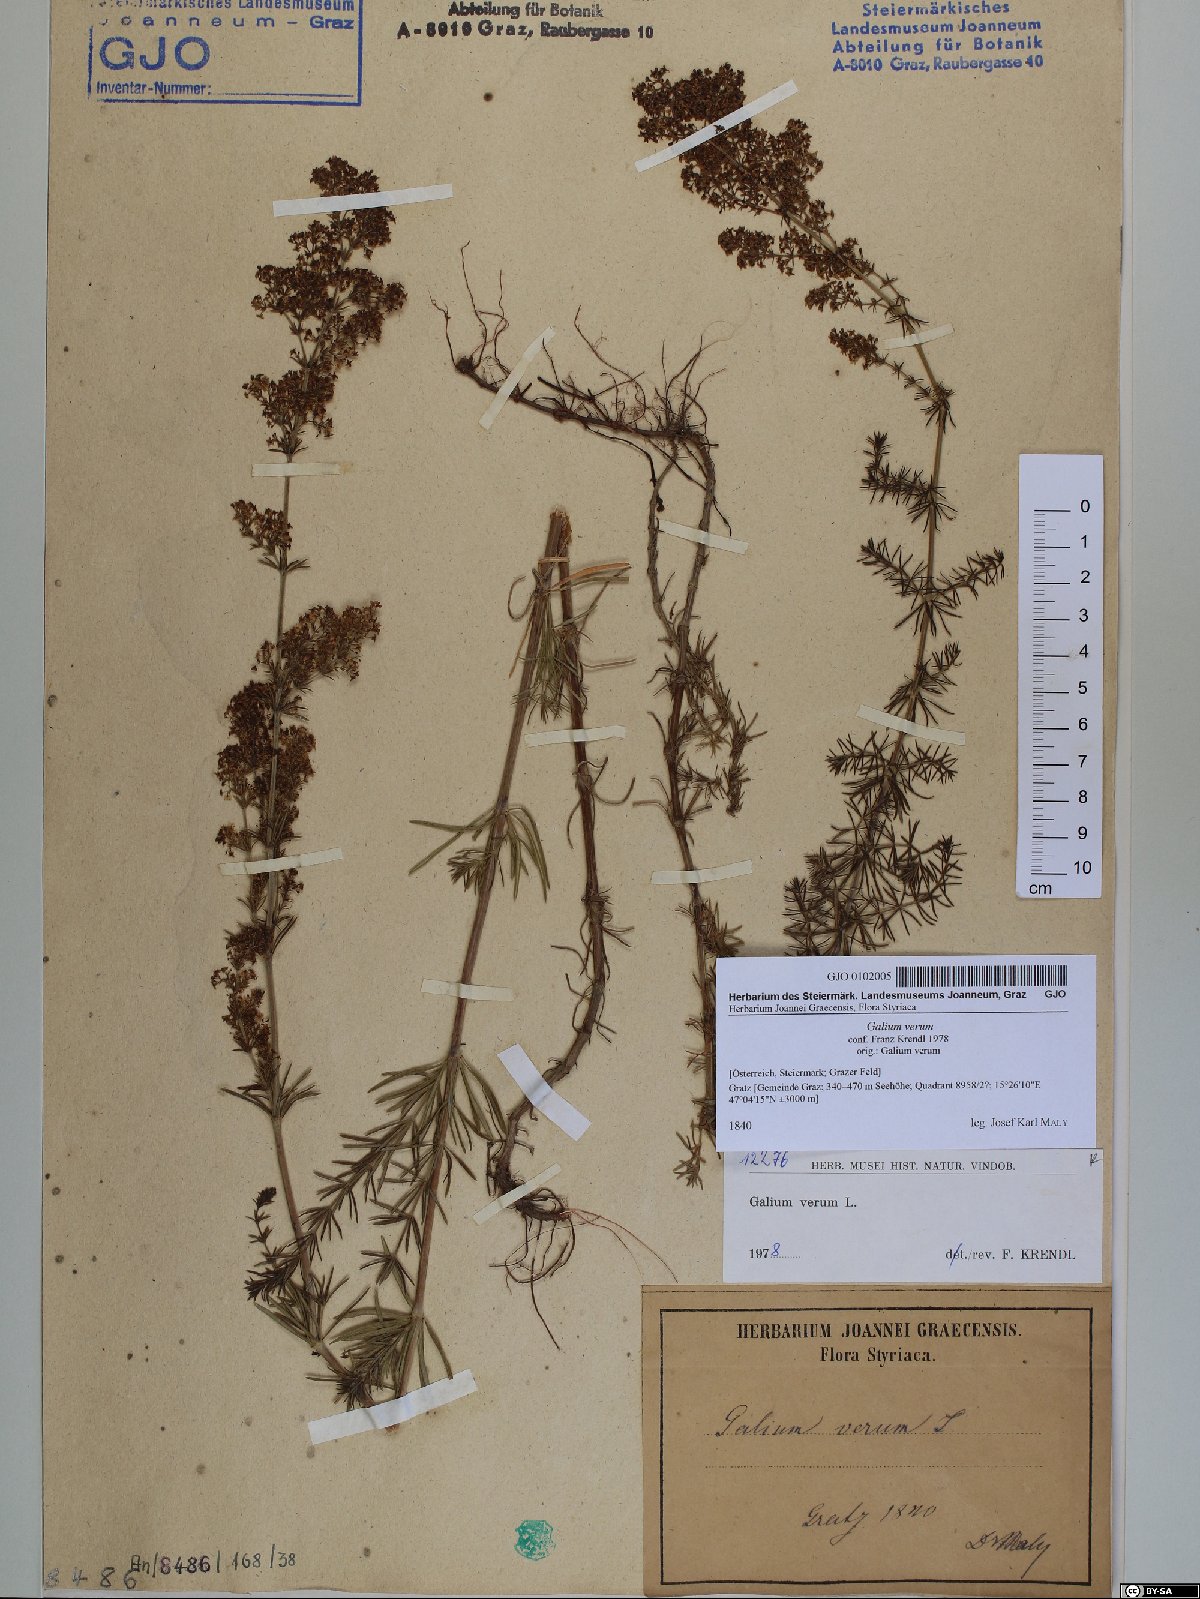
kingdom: Plantae
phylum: Tracheophyta
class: Magnoliopsida
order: Gentianales
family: Rubiaceae
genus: Galium
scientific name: Galium verum
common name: Lady's bedstraw
